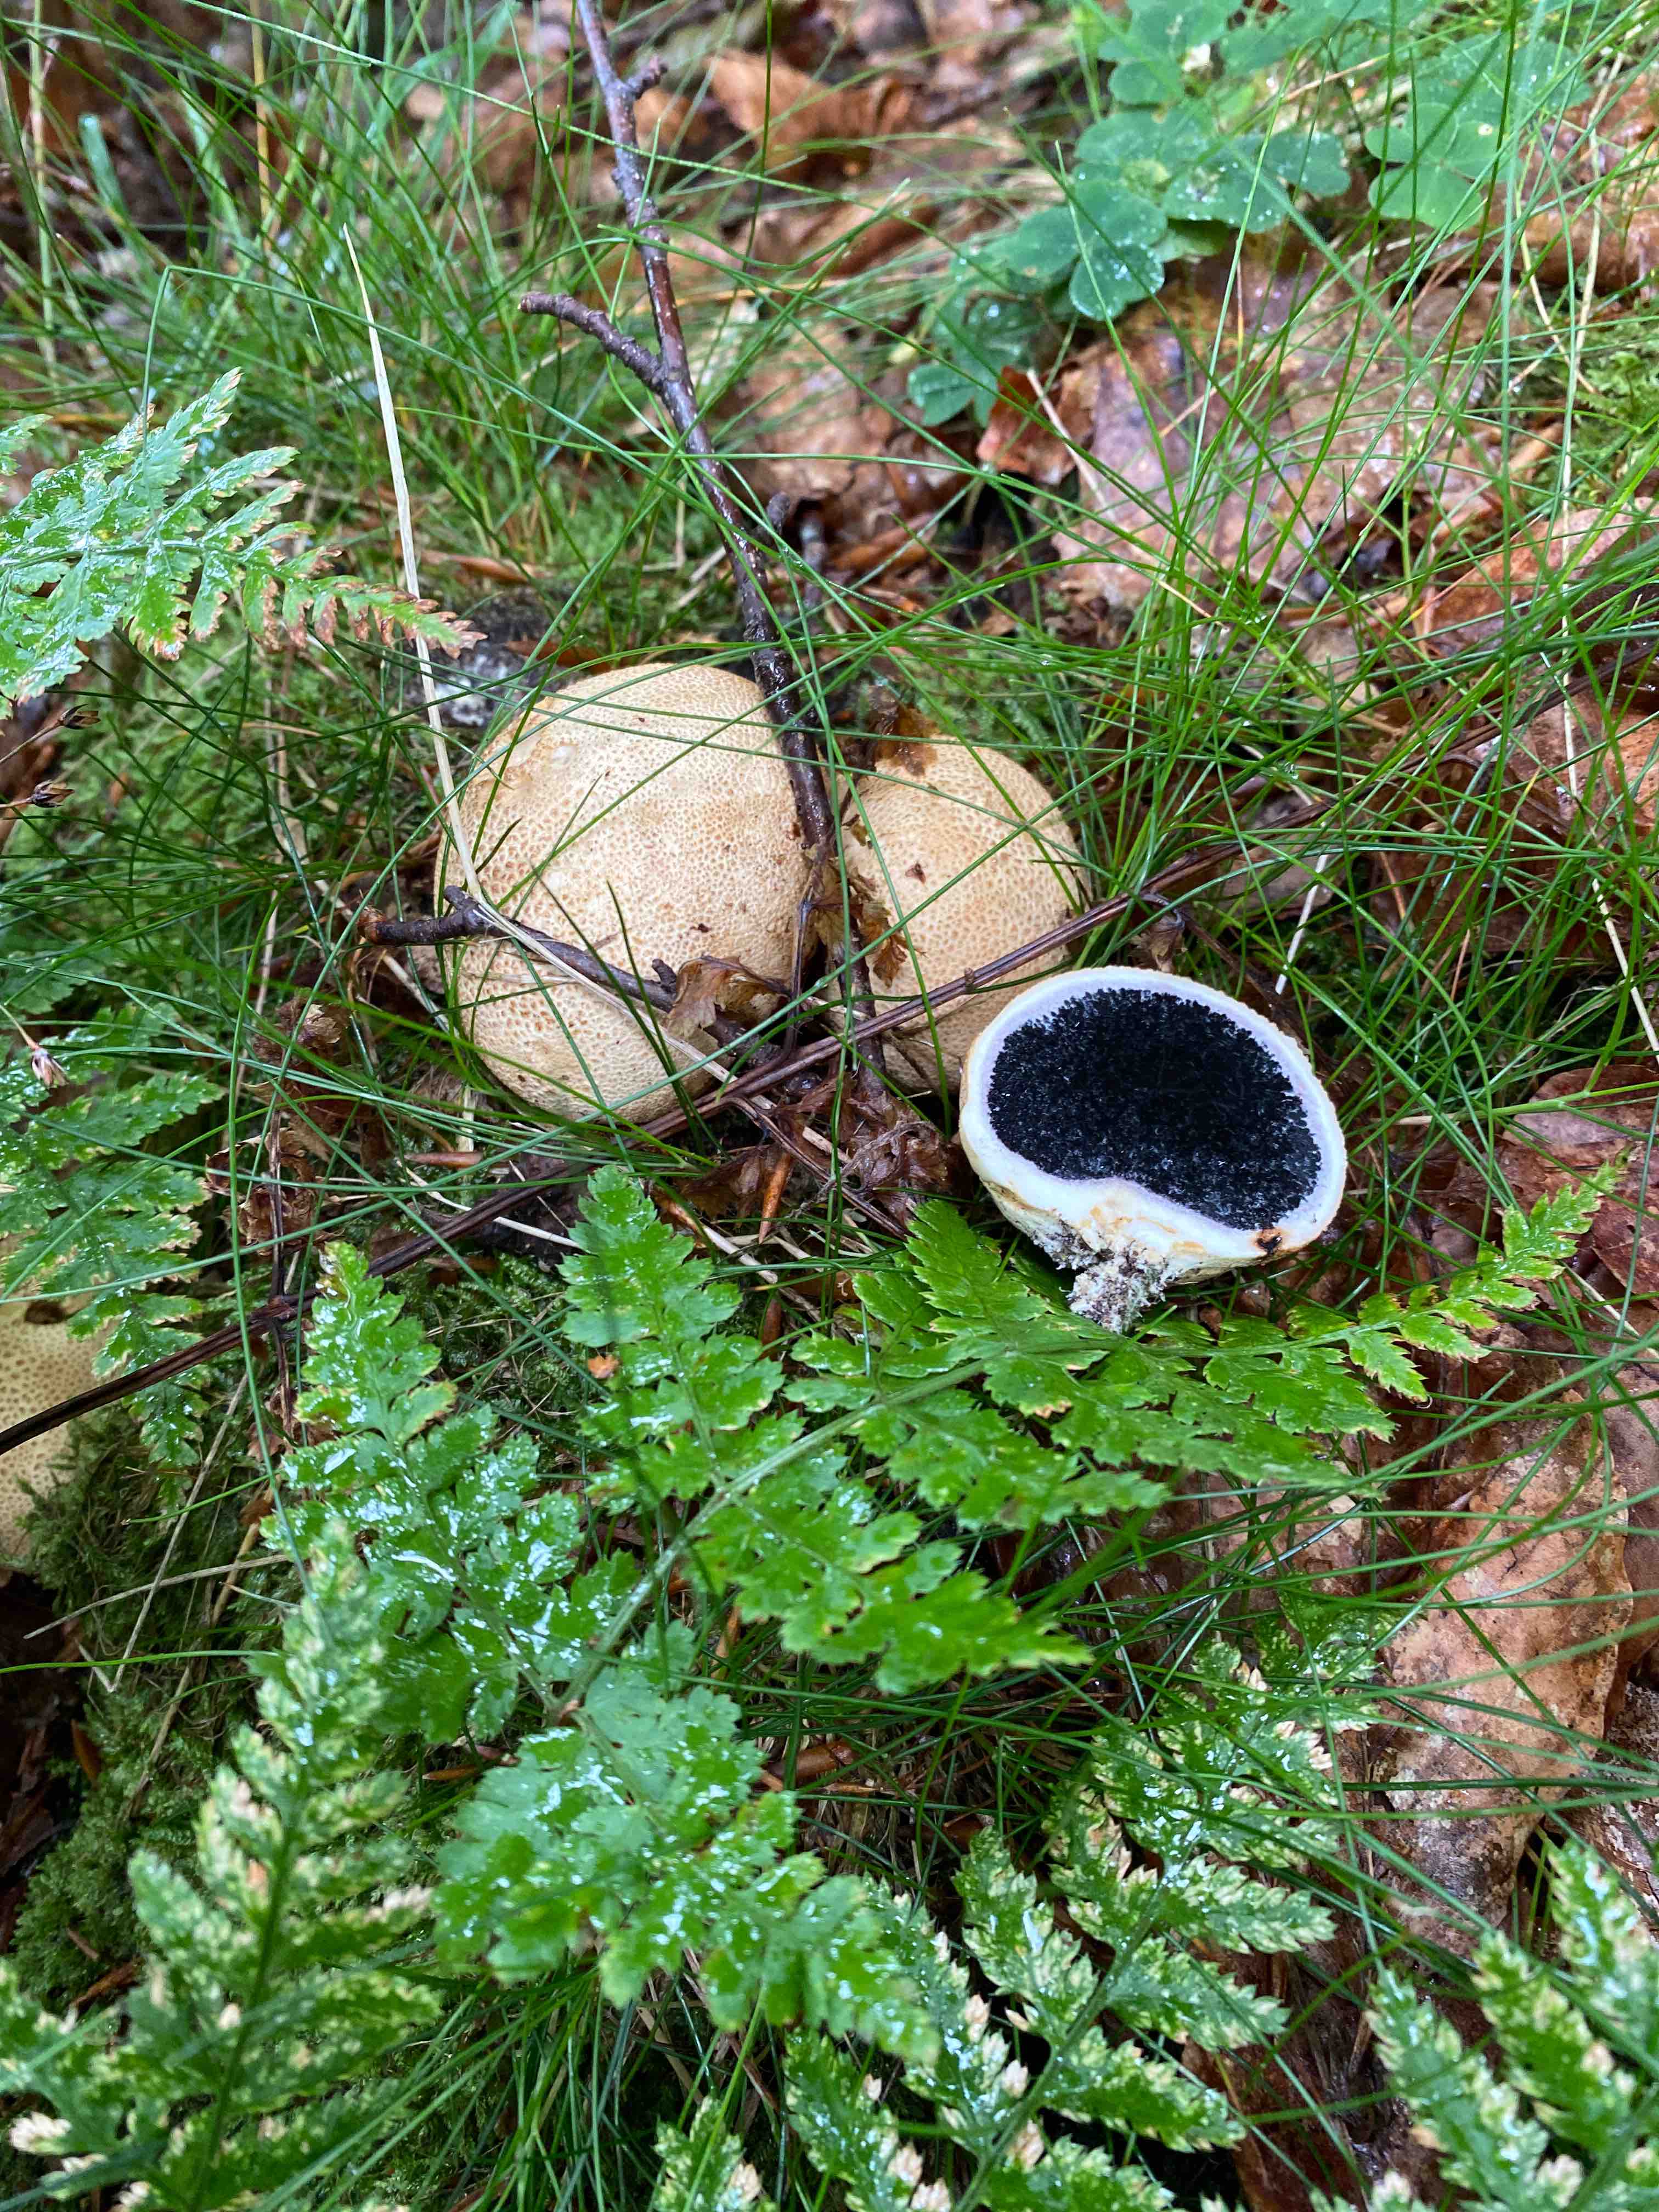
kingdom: Fungi
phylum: Basidiomycota
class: Agaricomycetes
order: Boletales
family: Sclerodermataceae
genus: Scleroderma
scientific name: Scleroderma citrinum
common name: almindelig bruskbold
